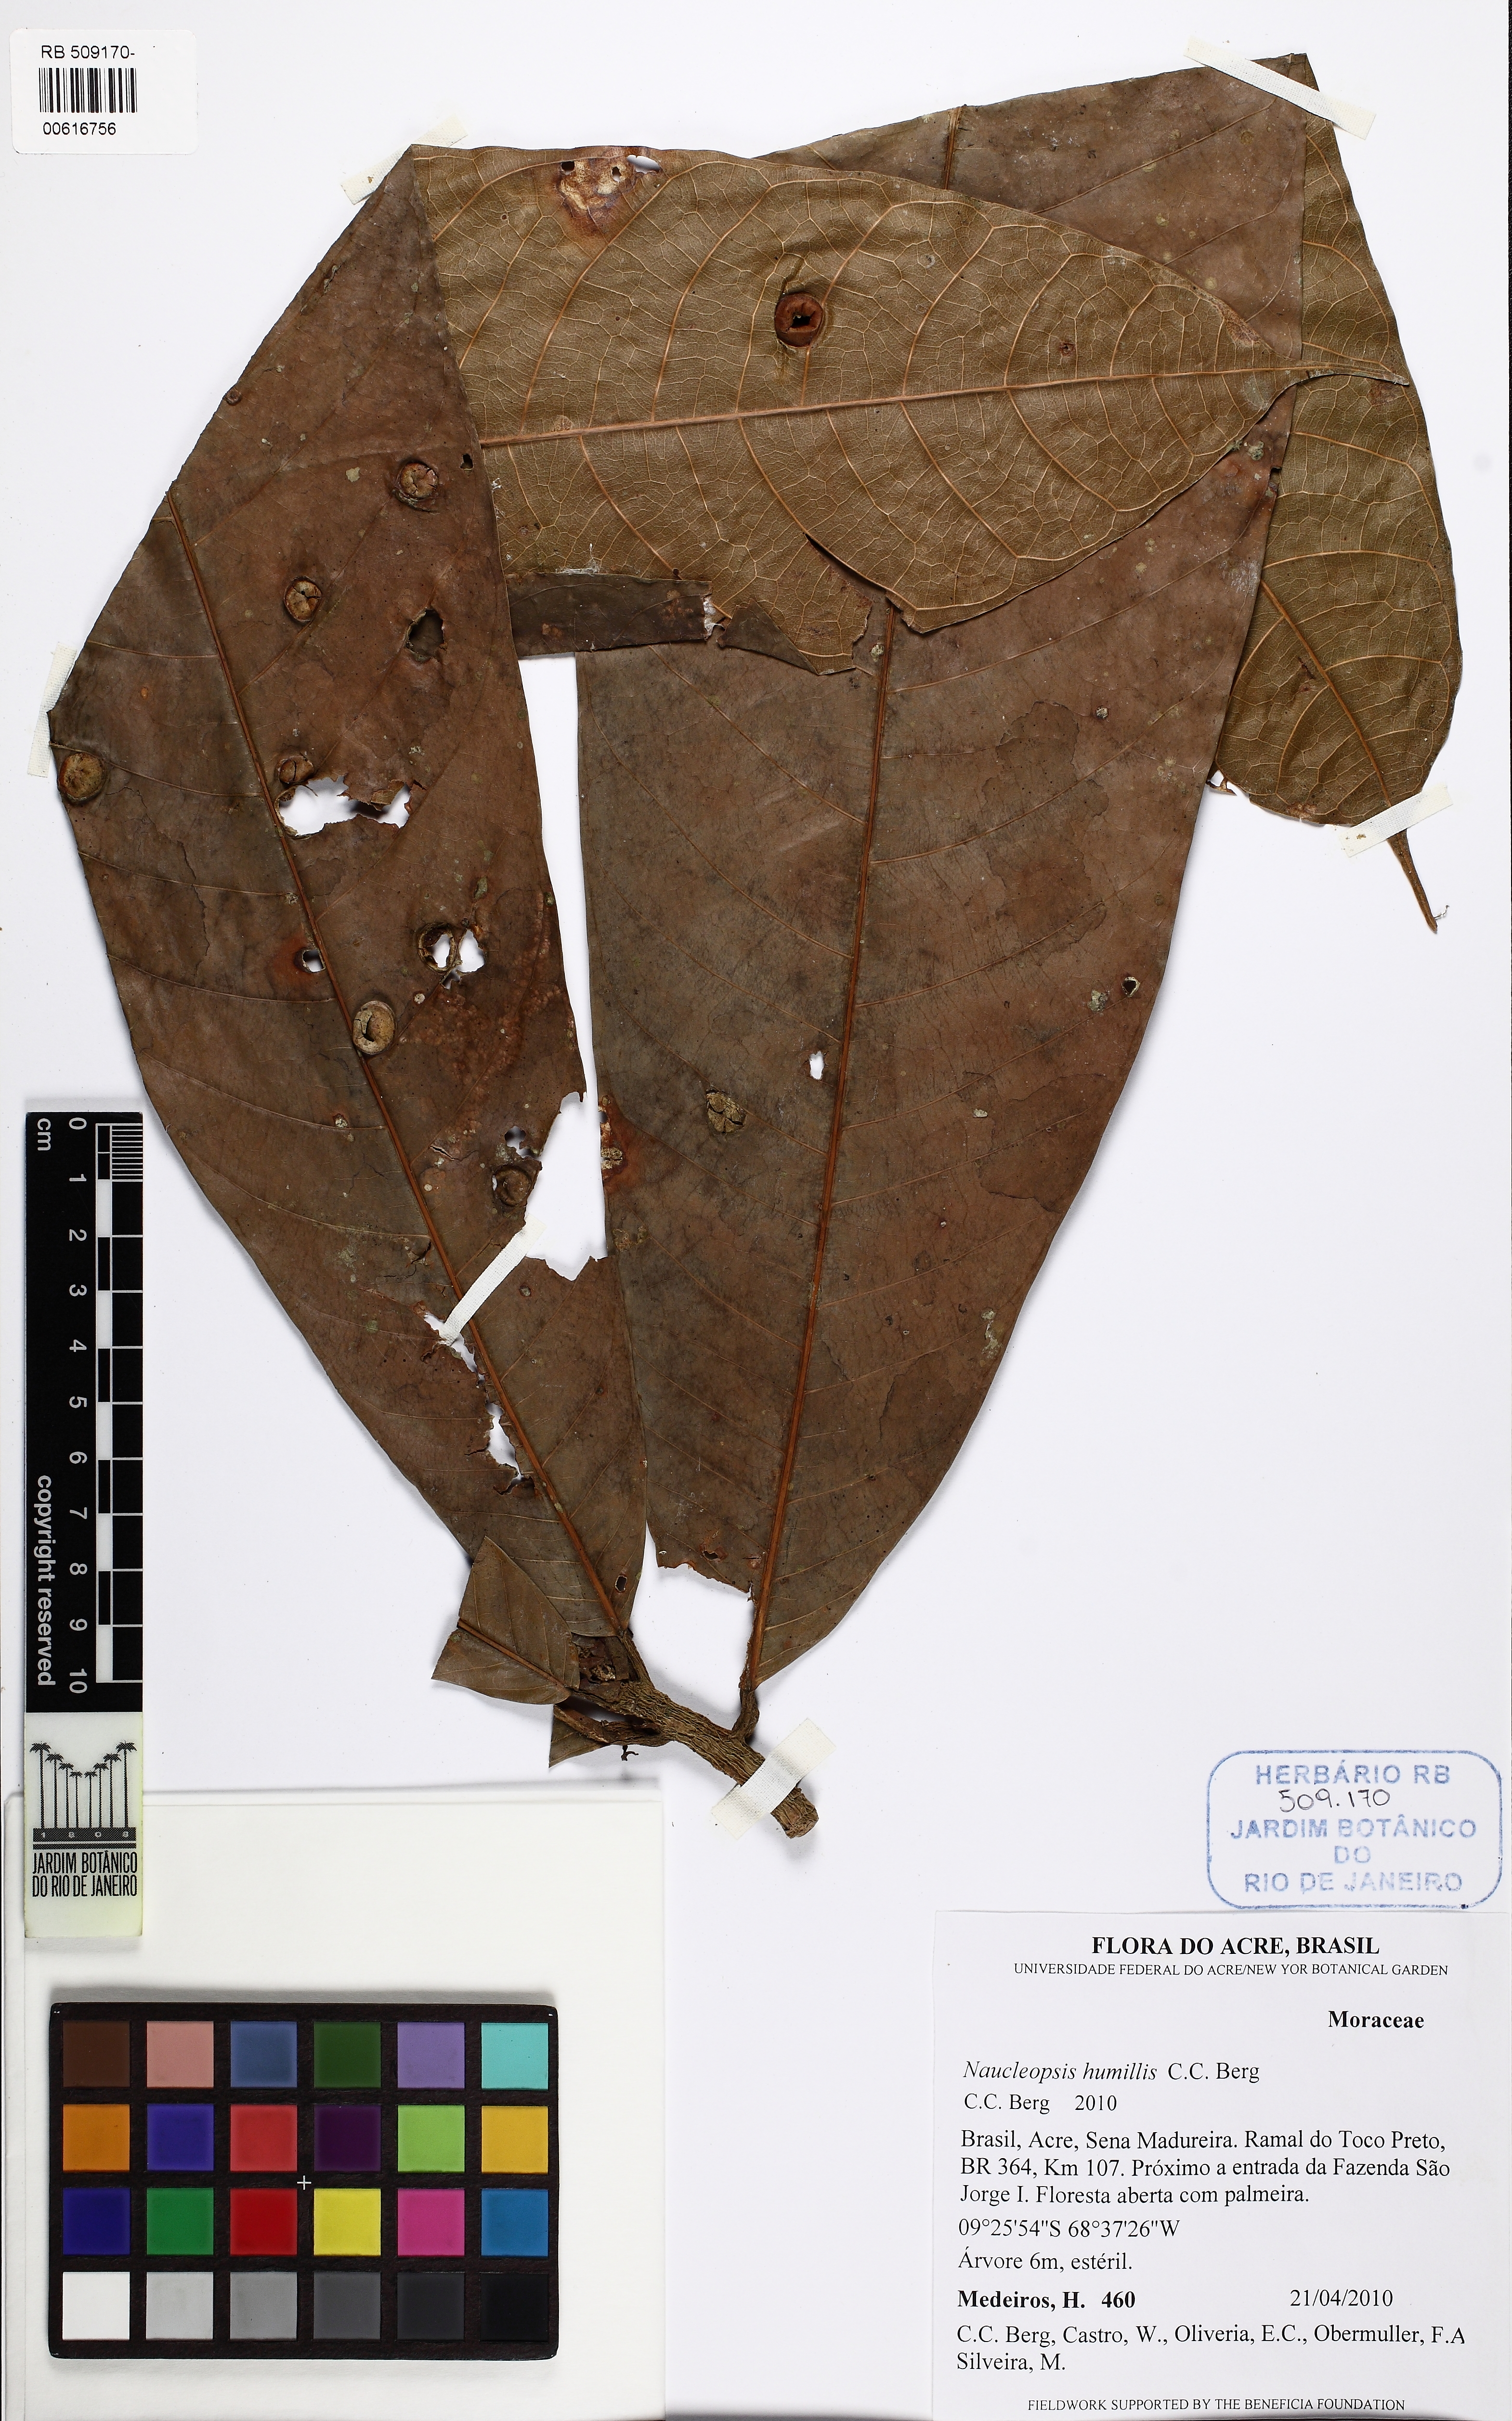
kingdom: Plantae
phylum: Tracheophyta
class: Magnoliopsida
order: Rosales
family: Moraceae
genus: Naucleopsis
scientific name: Naucleopsis humilis
